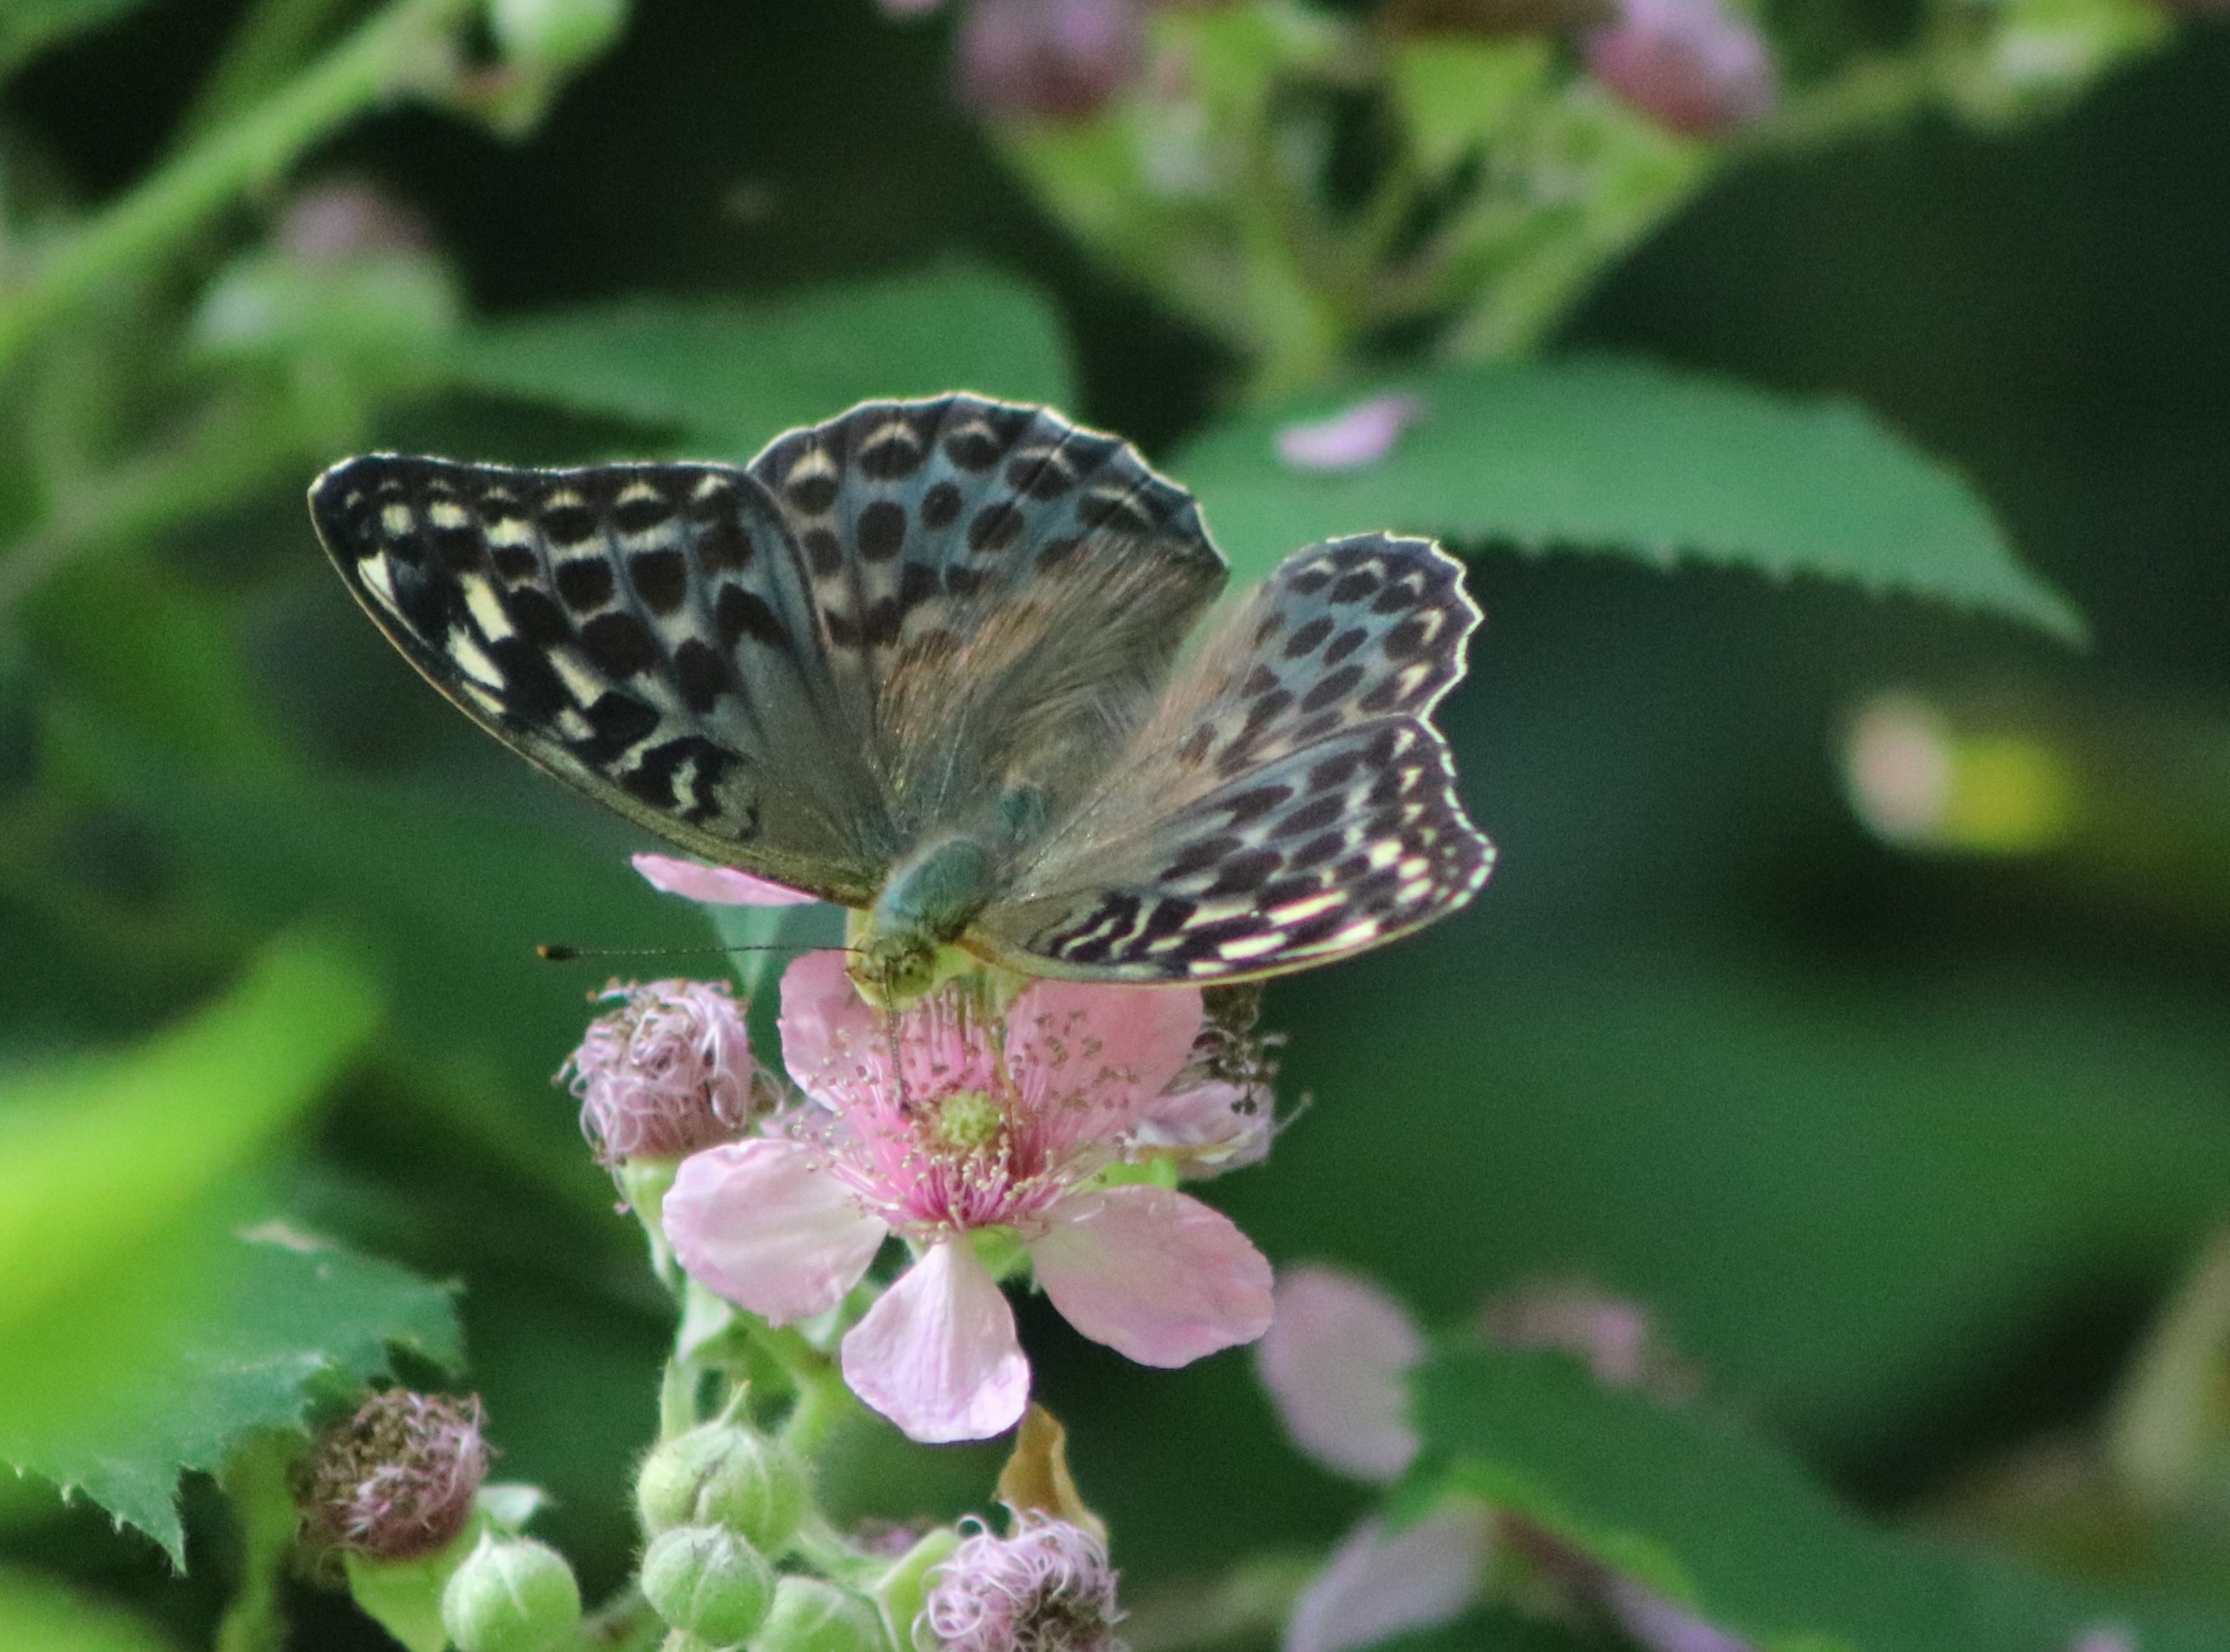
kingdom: Animalia
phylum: Arthropoda
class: Insecta
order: Lepidoptera
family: Nymphalidae
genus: Argynnis
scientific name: Argynnis paphia
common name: Kejserkåbe
